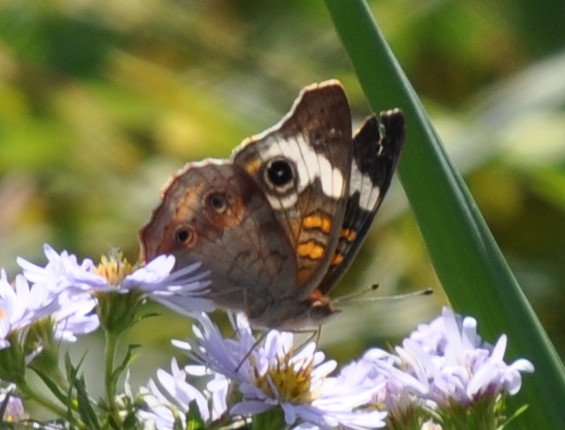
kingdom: Animalia
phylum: Arthropoda
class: Insecta
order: Lepidoptera
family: Nymphalidae
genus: Junonia
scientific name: Junonia coenia
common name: Common Buckeye
